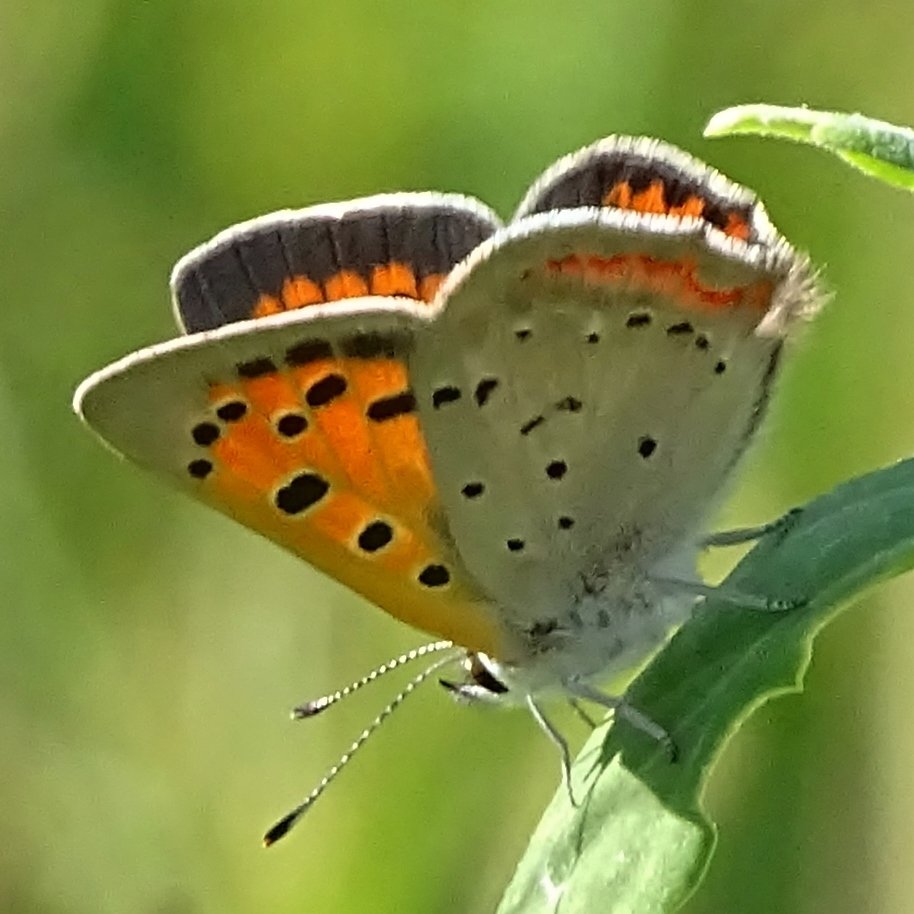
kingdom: Animalia
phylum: Arthropoda
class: Insecta
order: Lepidoptera
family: Lycaenidae
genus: Lycaena
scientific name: Lycaena phlaeas
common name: American Copper
